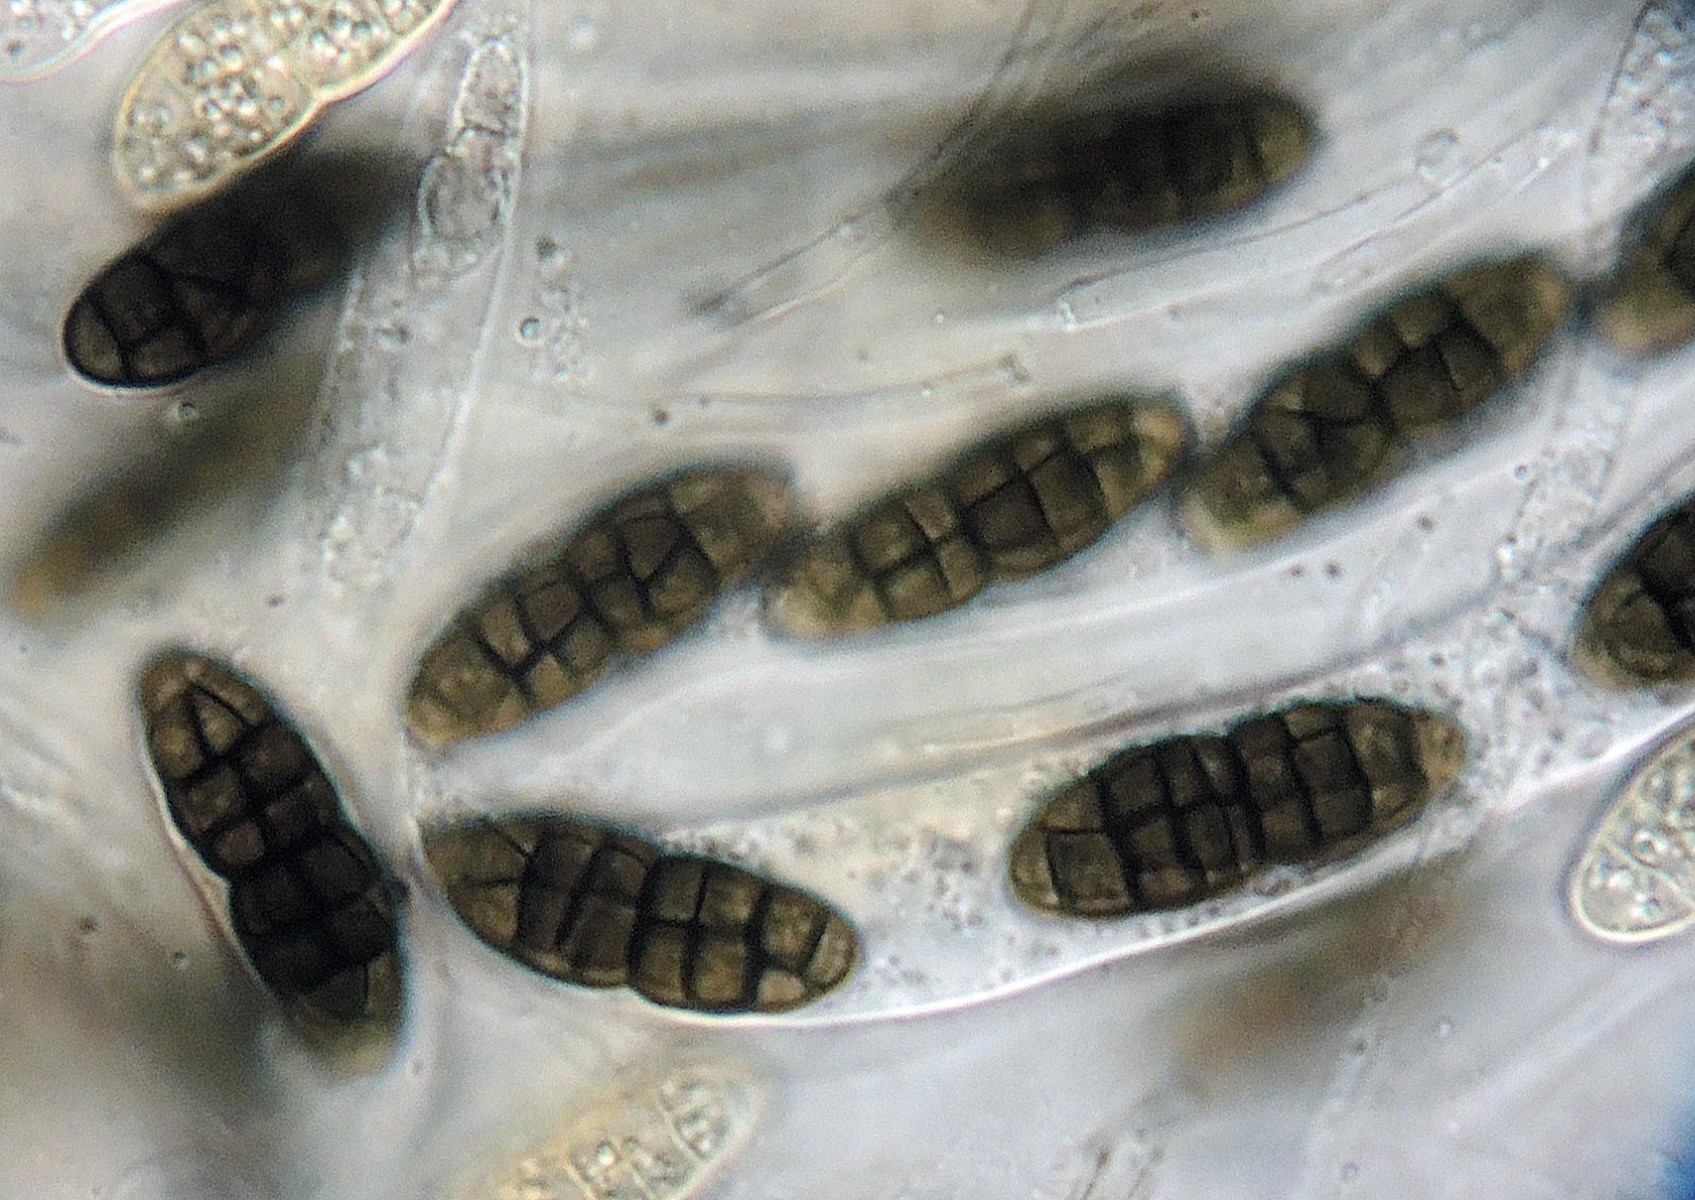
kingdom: Fungi
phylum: Ascomycota
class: Dothideomycetes
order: Pleosporales
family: Teichosporaceae
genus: Teichospora
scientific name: Teichospora
